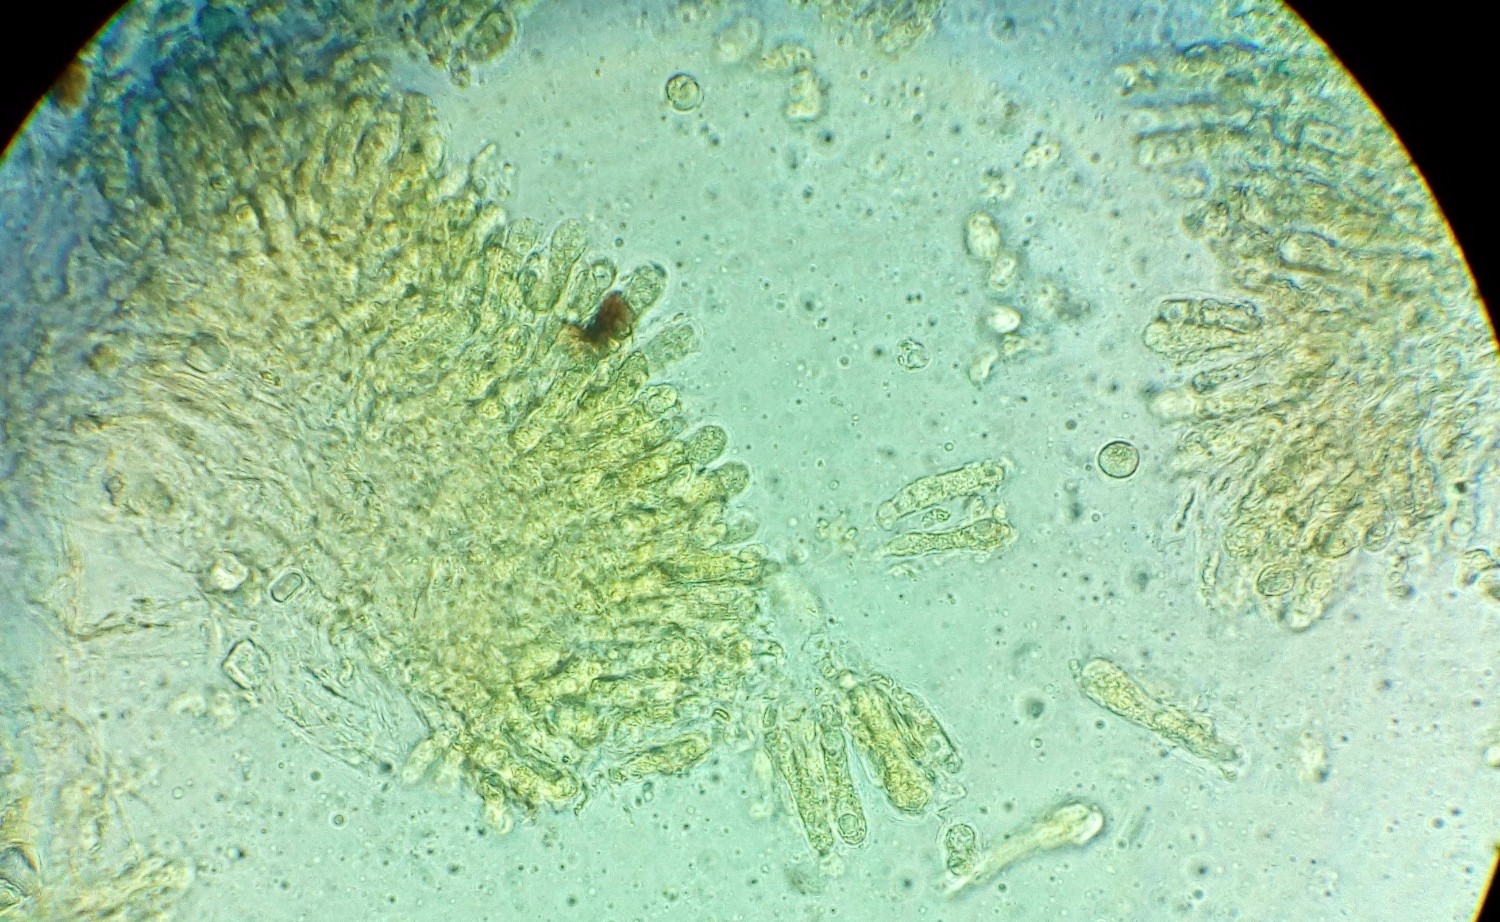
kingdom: Fungi
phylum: Basidiomycota
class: Agaricomycetes
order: Agaricales
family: Mycenaceae
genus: Atheniella
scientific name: Atheniella leptophylla
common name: abrikos-huesvamp
